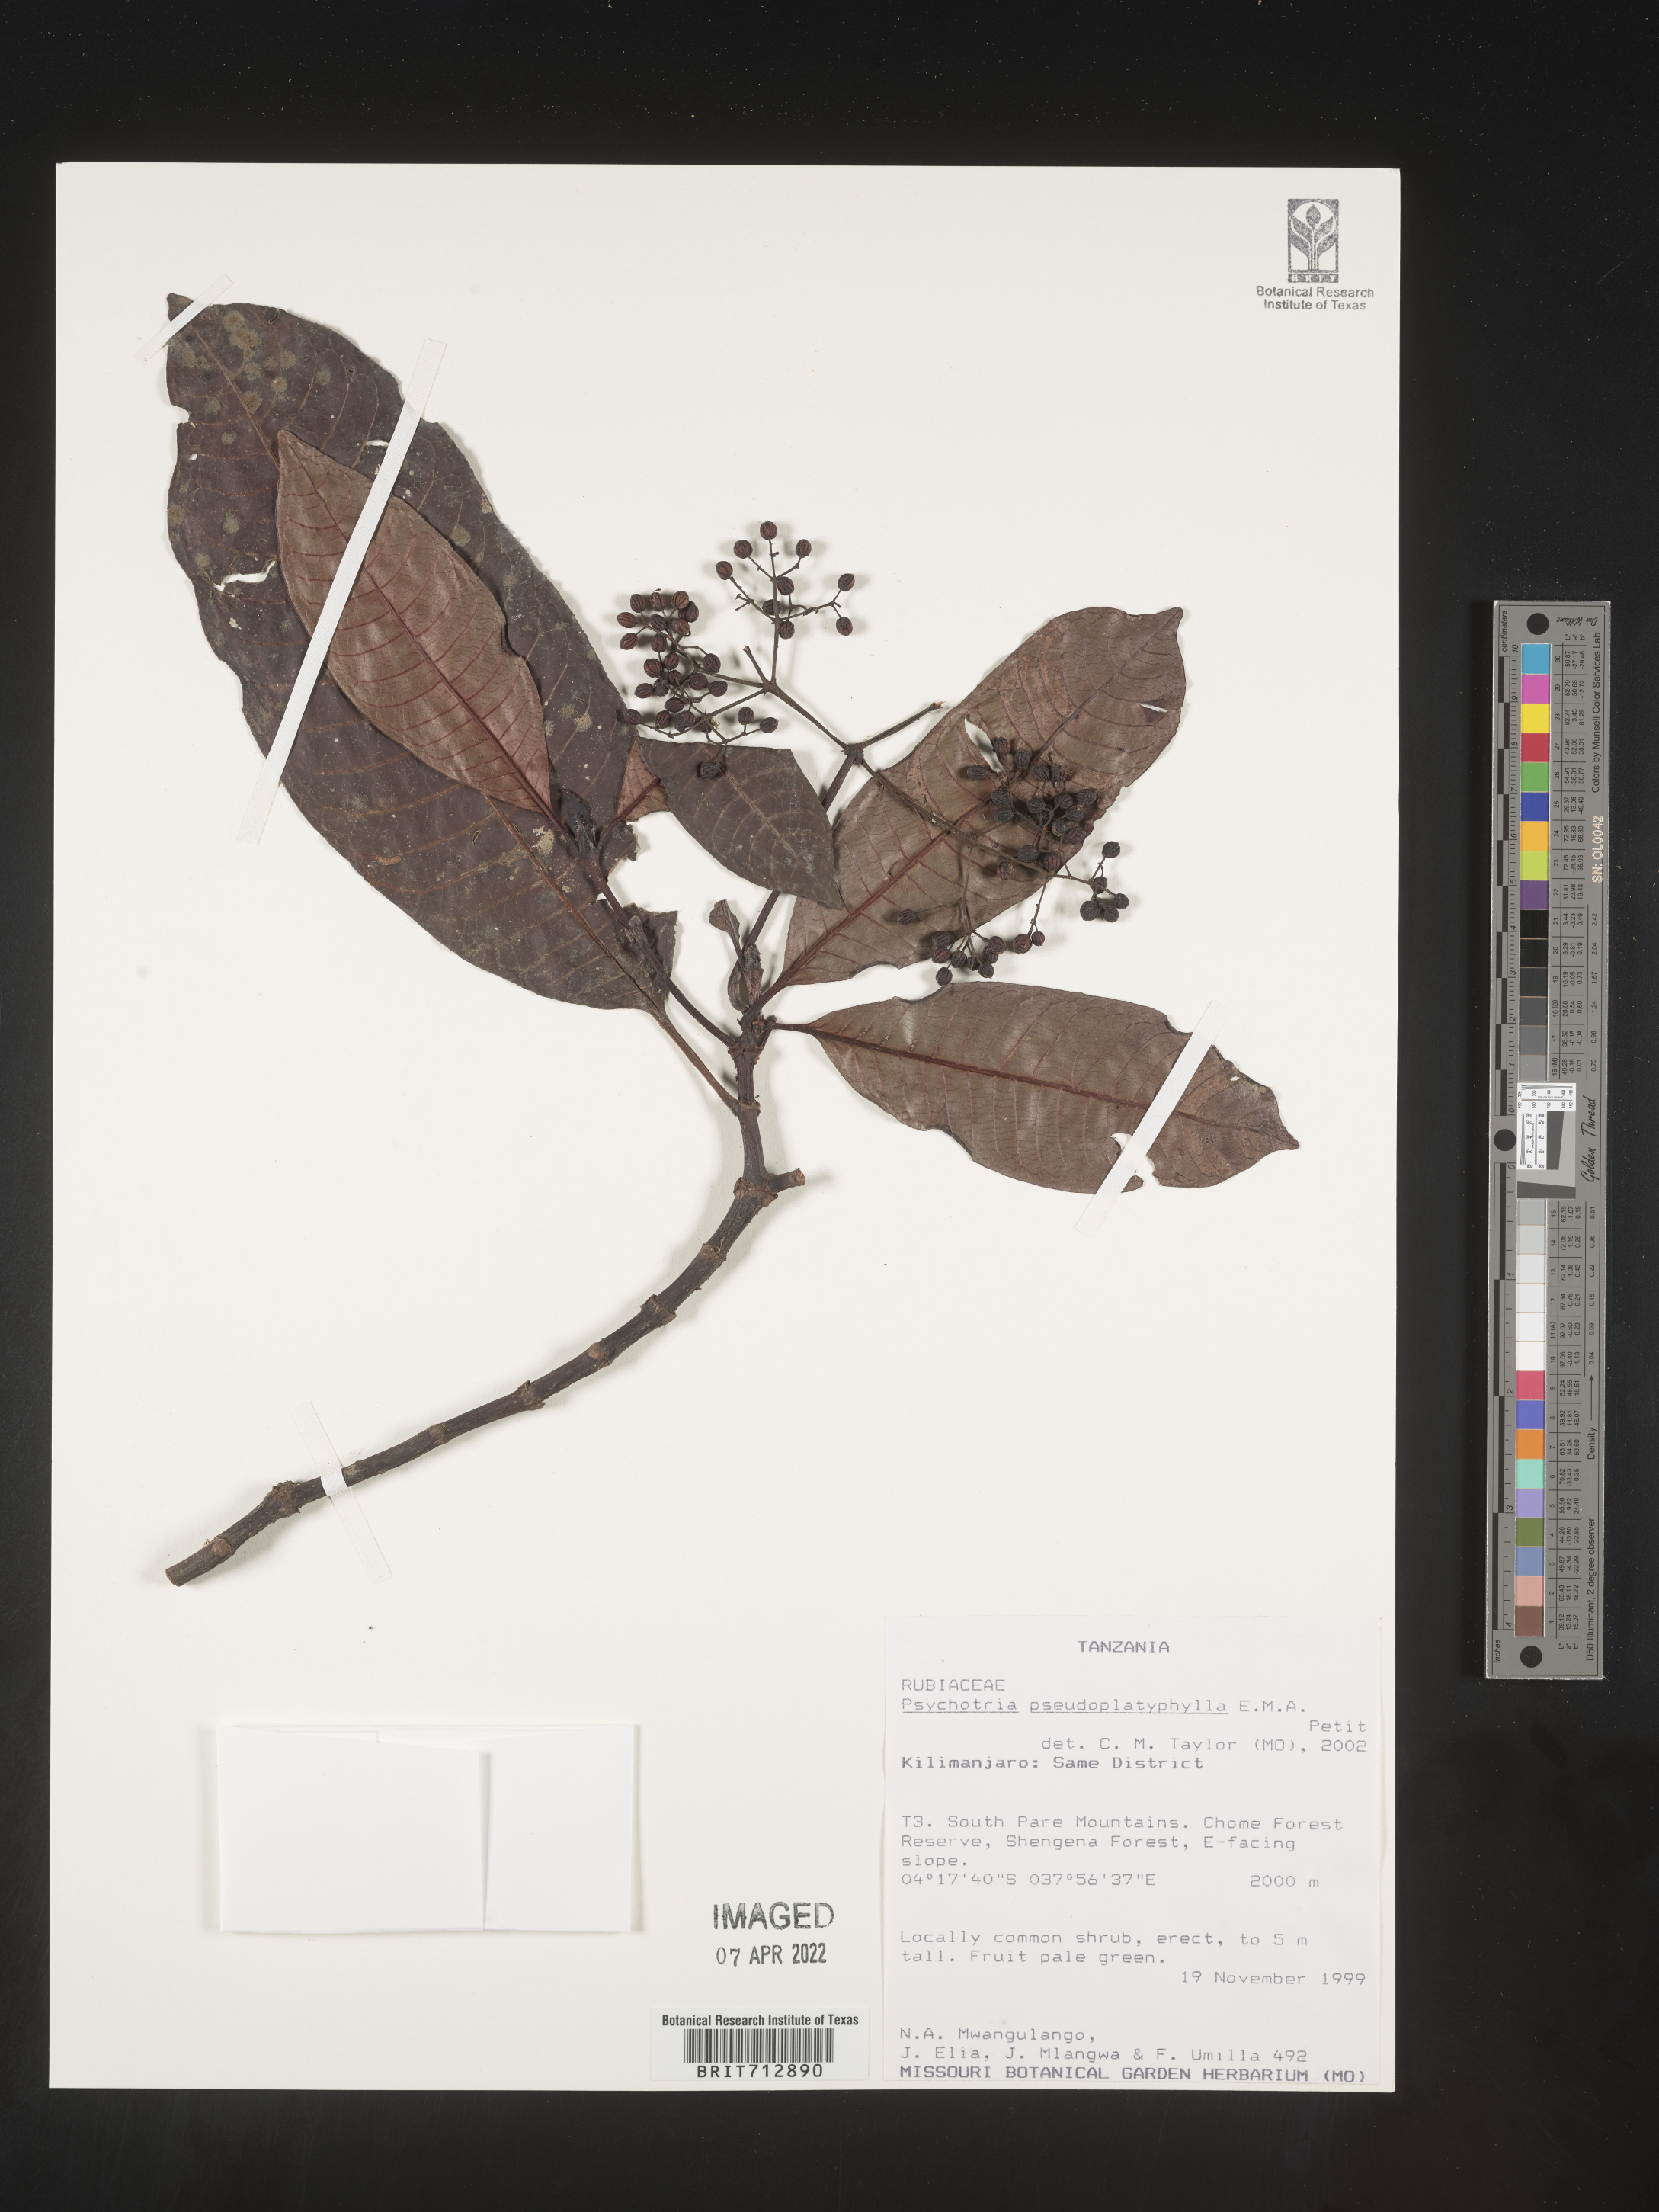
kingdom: Plantae
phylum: Tracheophyta
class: Magnoliopsida
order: Gentianales
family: Rubiaceae
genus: Psychotria
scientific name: Psychotria
